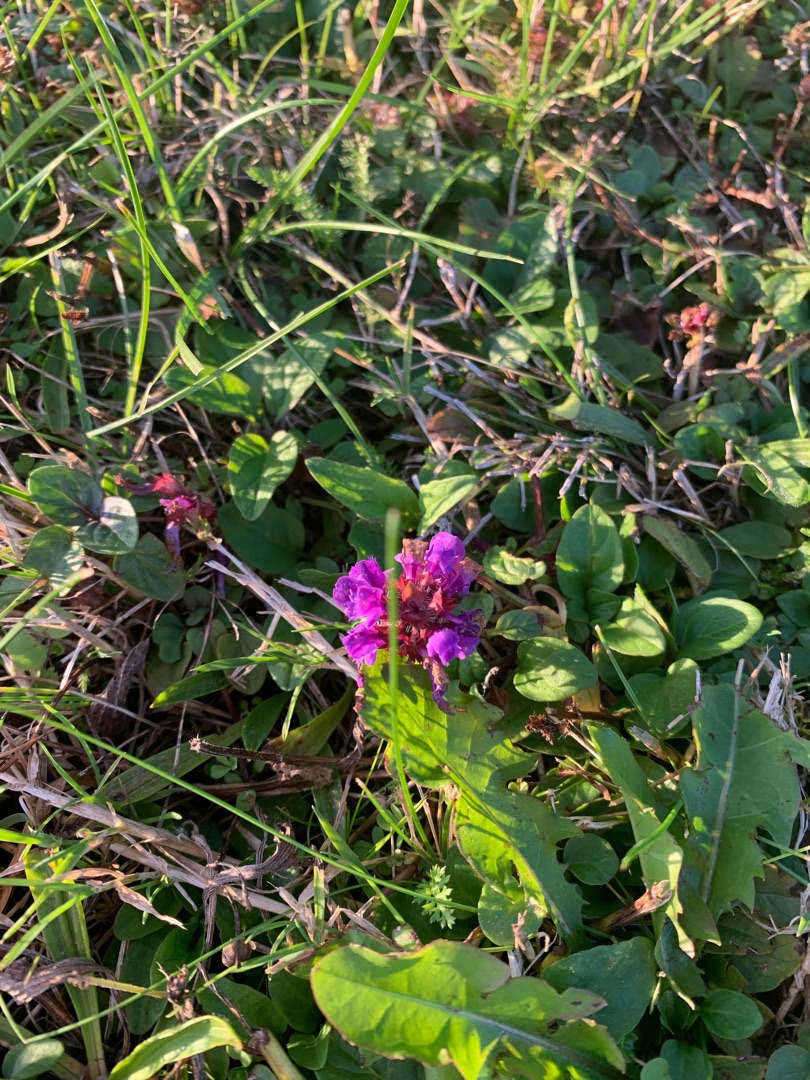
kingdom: Plantae
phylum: Tracheophyta
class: Magnoliopsida
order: Lamiales
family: Lamiaceae
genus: Prunella
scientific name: Prunella vulgaris
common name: Almindelig brunelle
